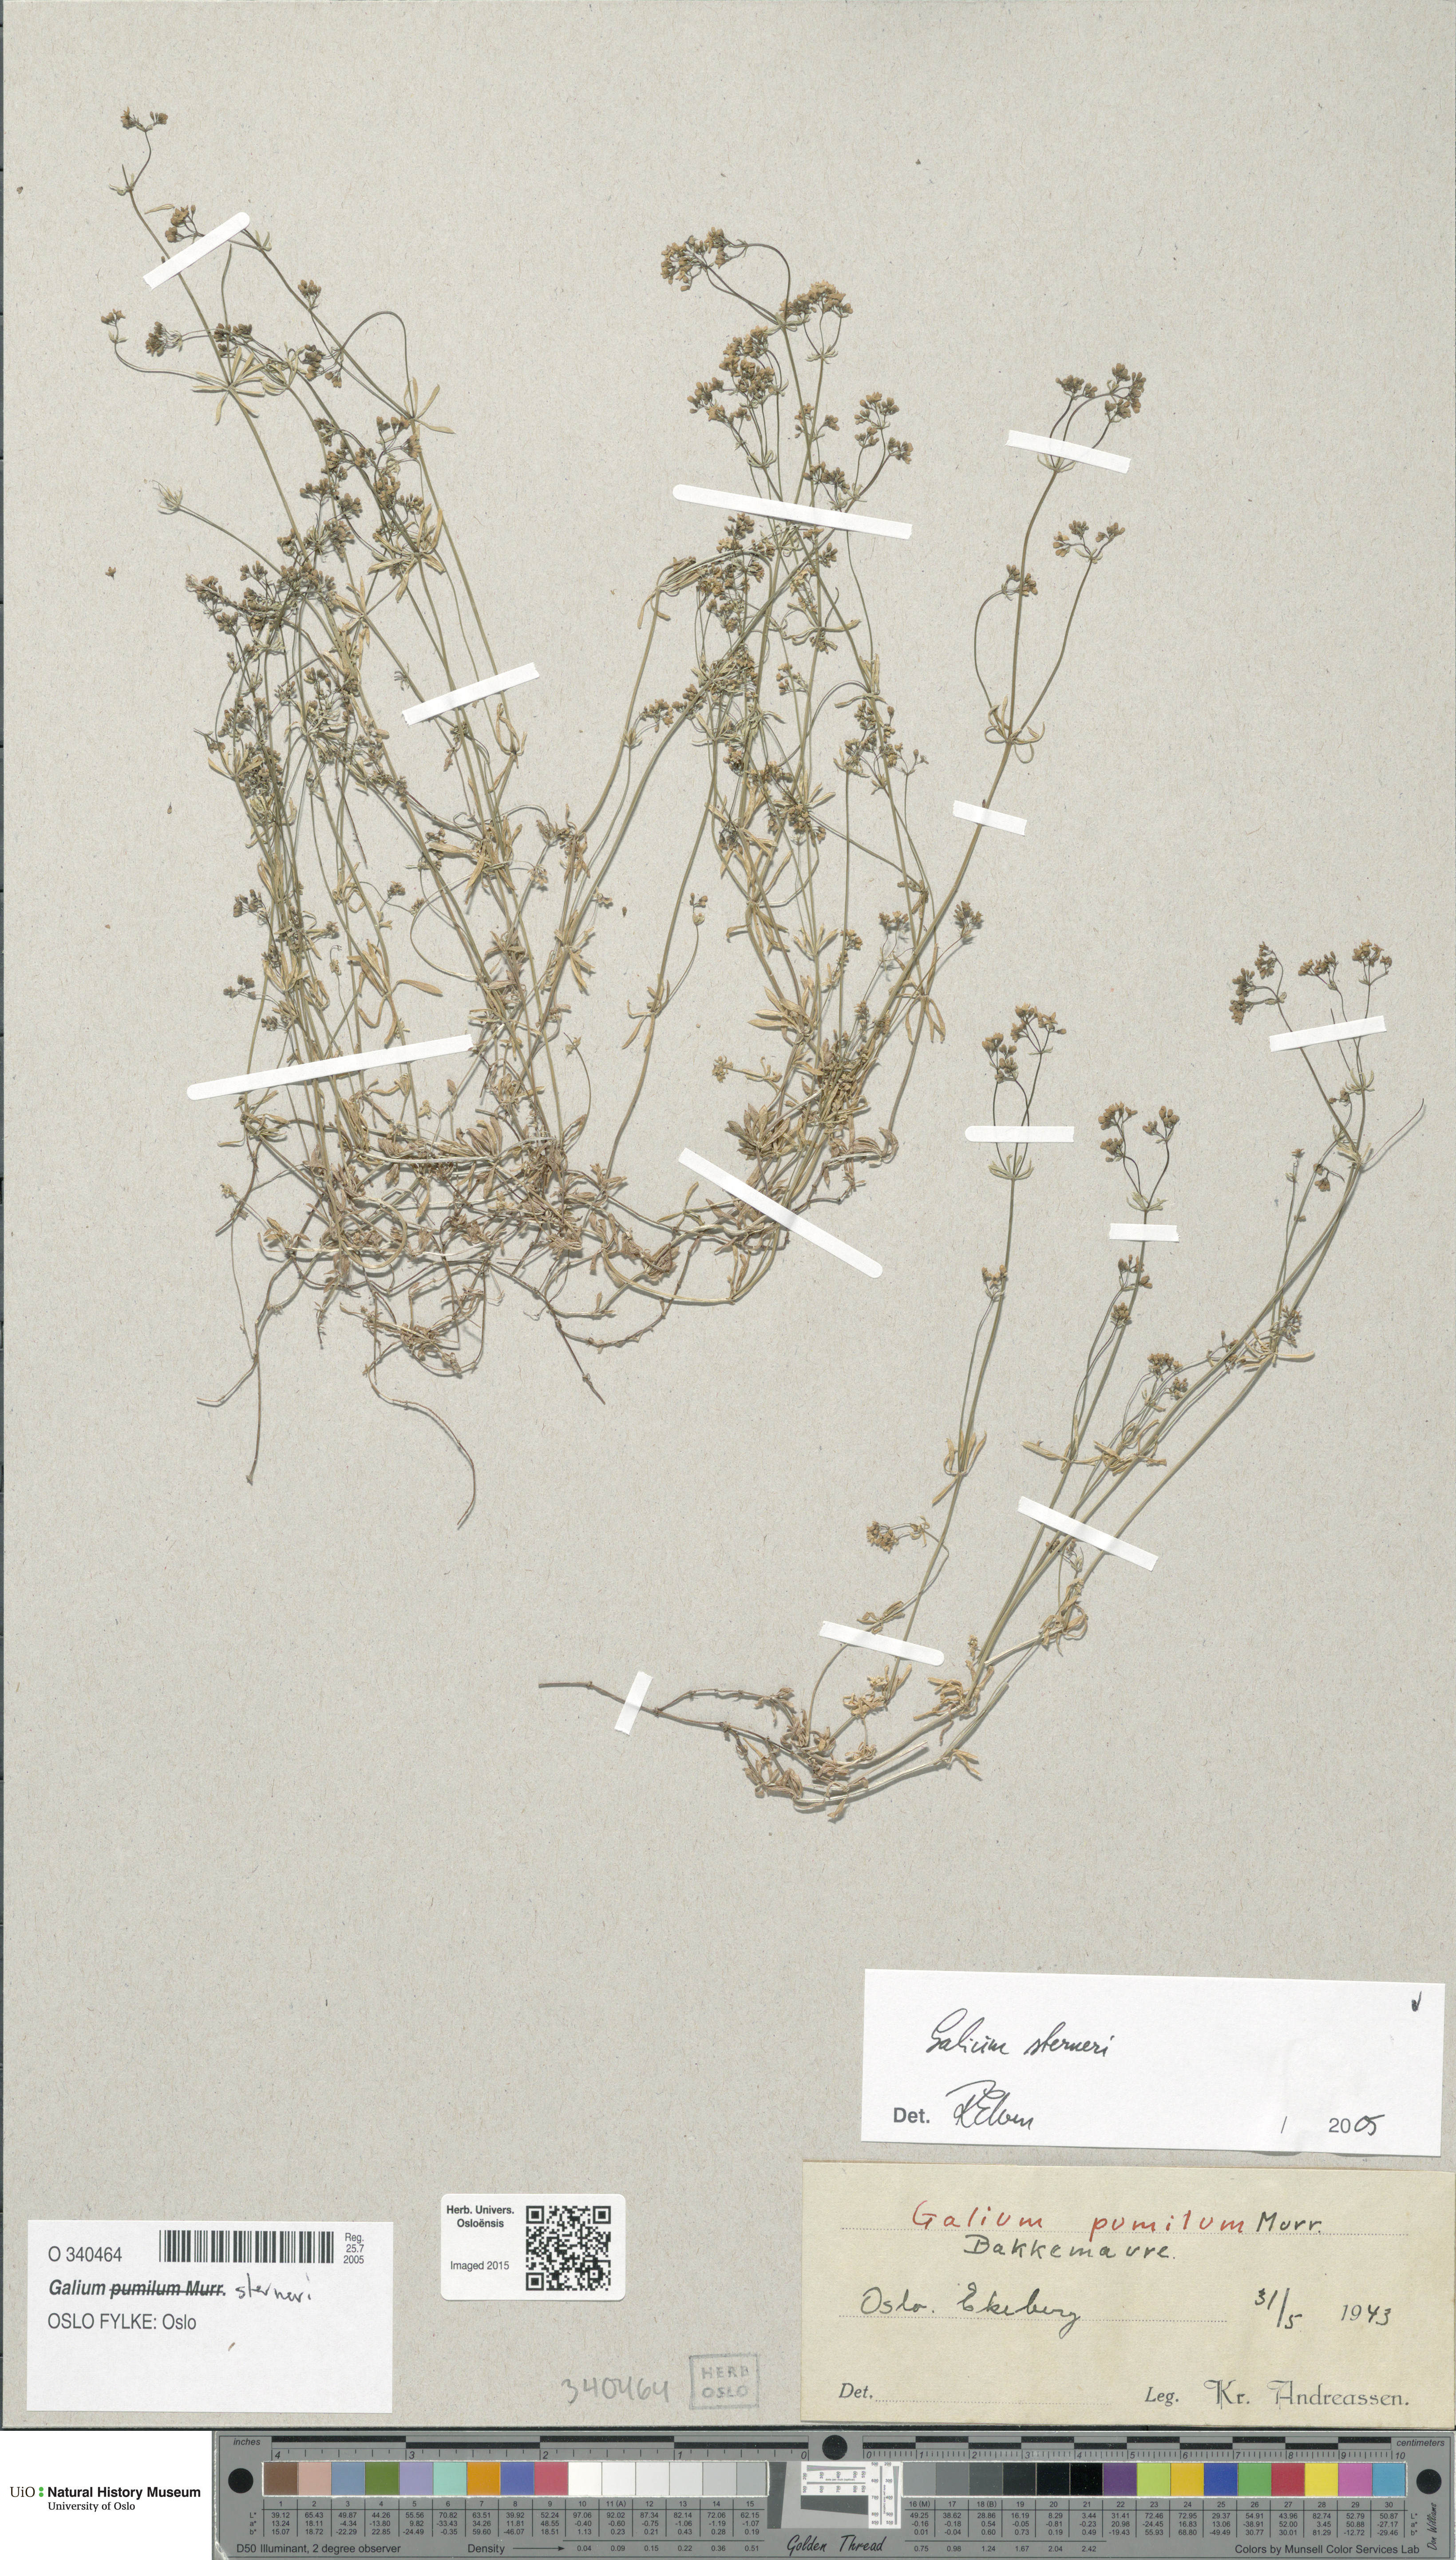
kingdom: Plantae
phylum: Tracheophyta
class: Magnoliopsida
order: Gentianales
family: Rubiaceae
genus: Galium
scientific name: Galium sterneri
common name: Limestone bedstraw
